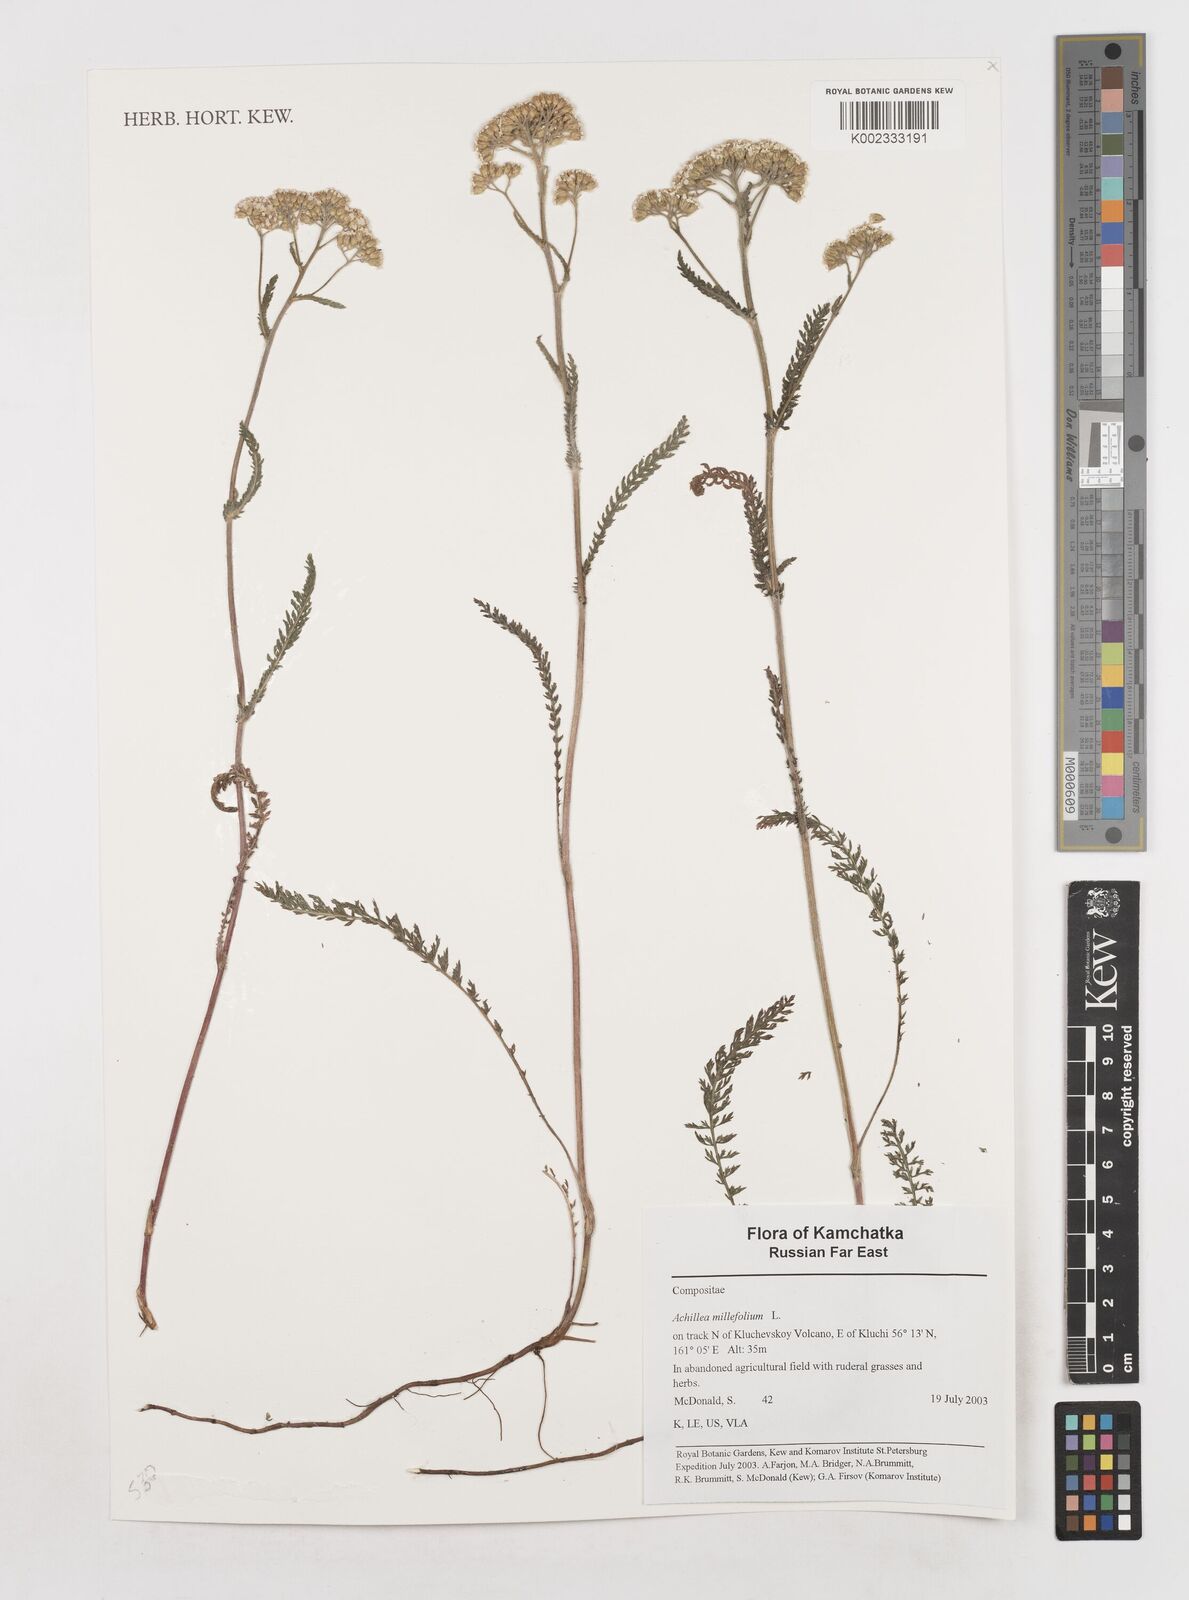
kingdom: Plantae
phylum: Tracheophyta
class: Magnoliopsida
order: Asterales
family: Asteraceae
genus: Achillea
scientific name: Achillea millefolium
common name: Yarrow
